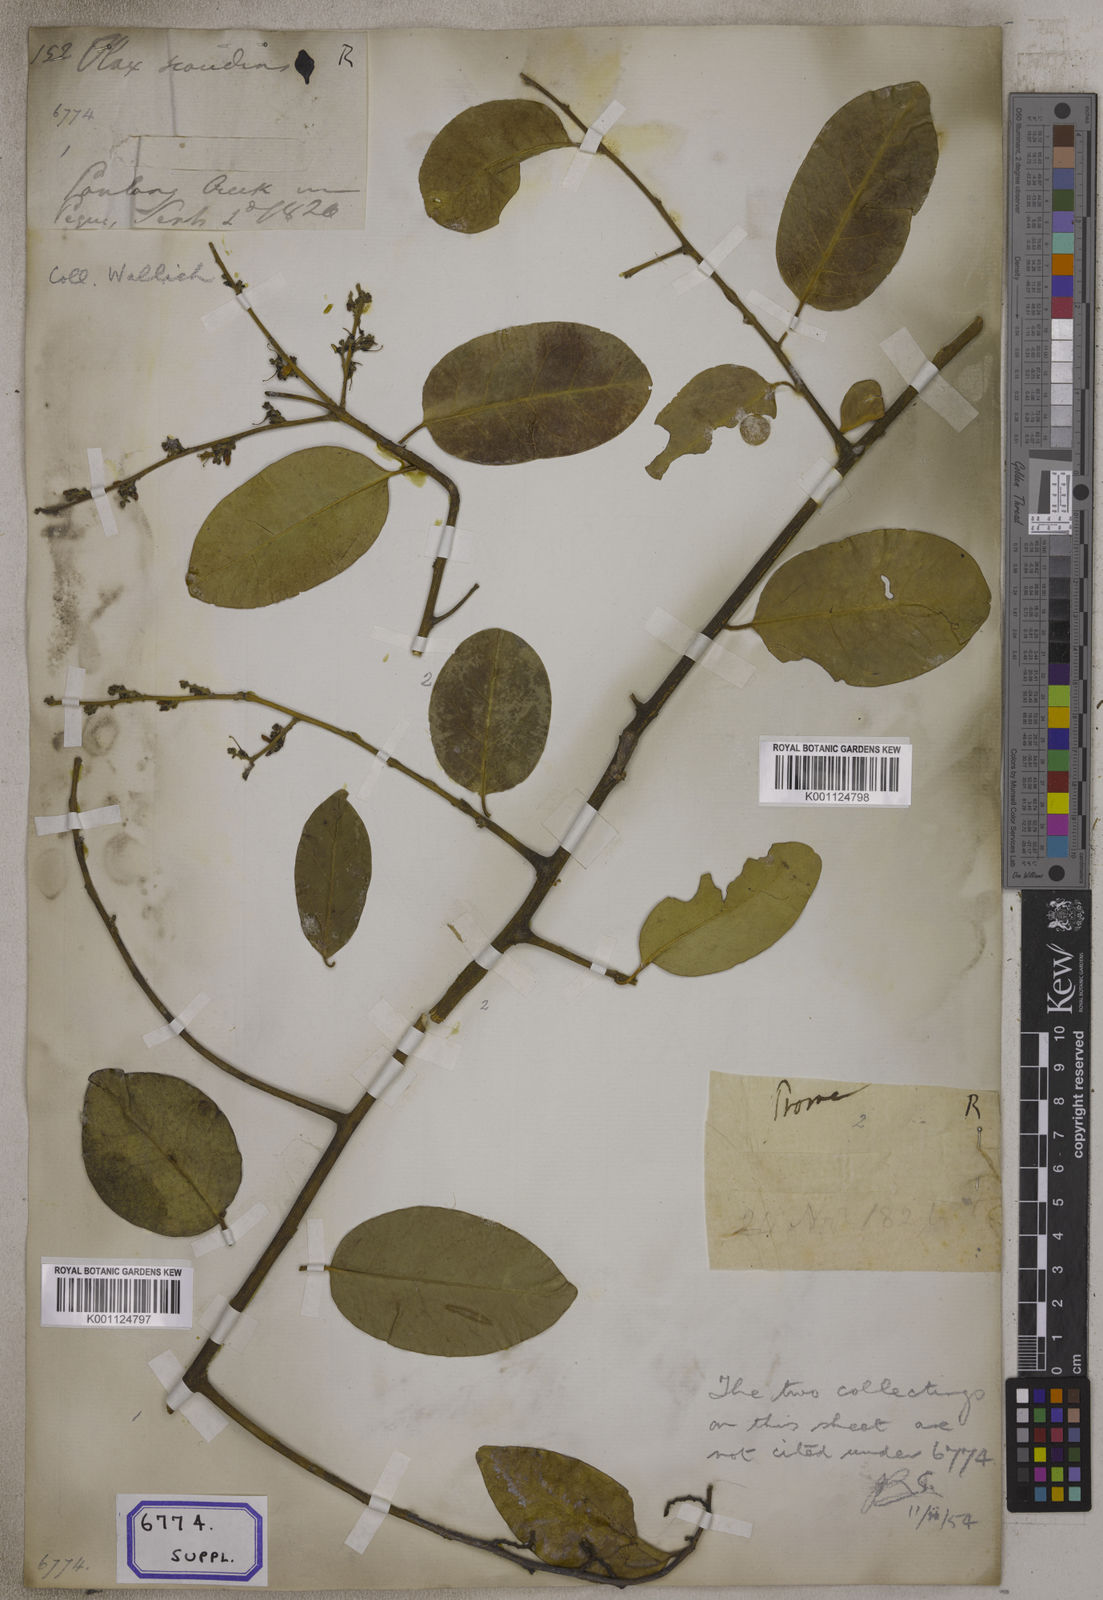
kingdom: Plantae
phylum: Tracheophyta
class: Magnoliopsida
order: Santalales
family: Olacaceae
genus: Olax
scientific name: Olax psittacorum
